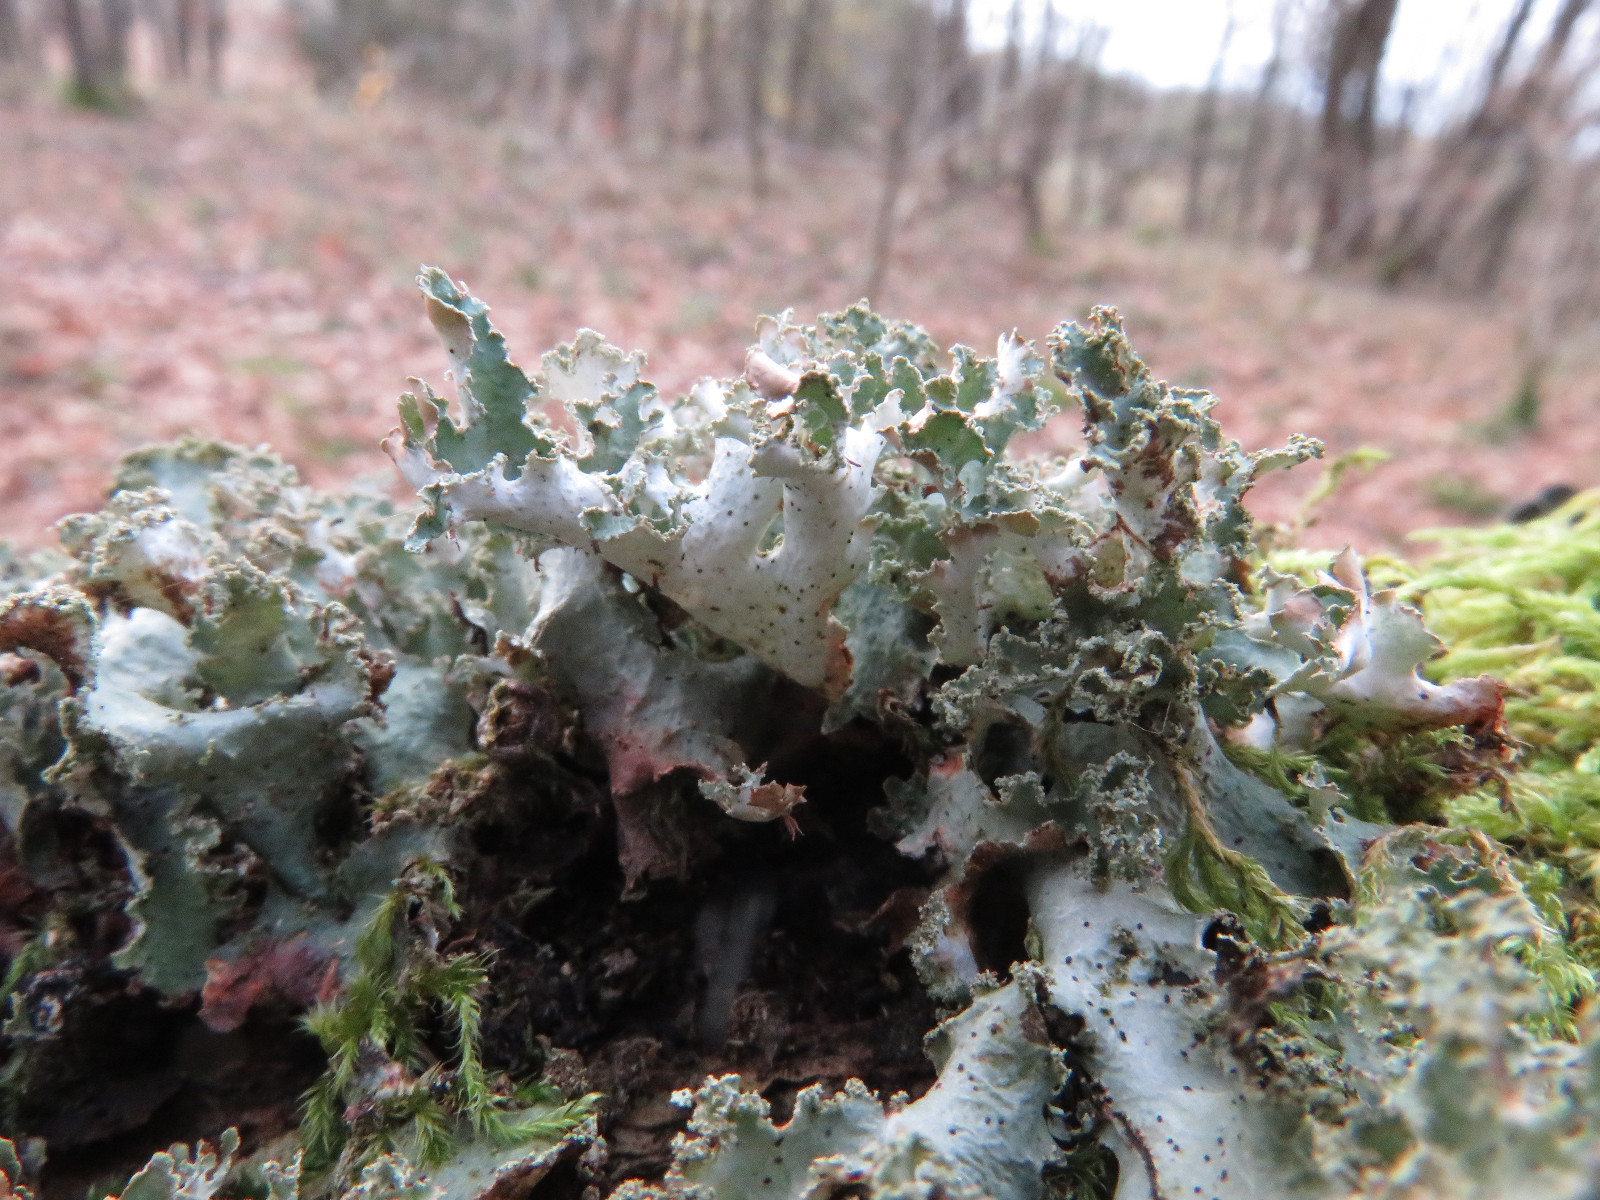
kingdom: Fungi
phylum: Ascomycota
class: Lecanoromycetes
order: Lecanorales
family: Parmeliaceae
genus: Platismatia
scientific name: Platismatia glauca
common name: blågrå papirlav
